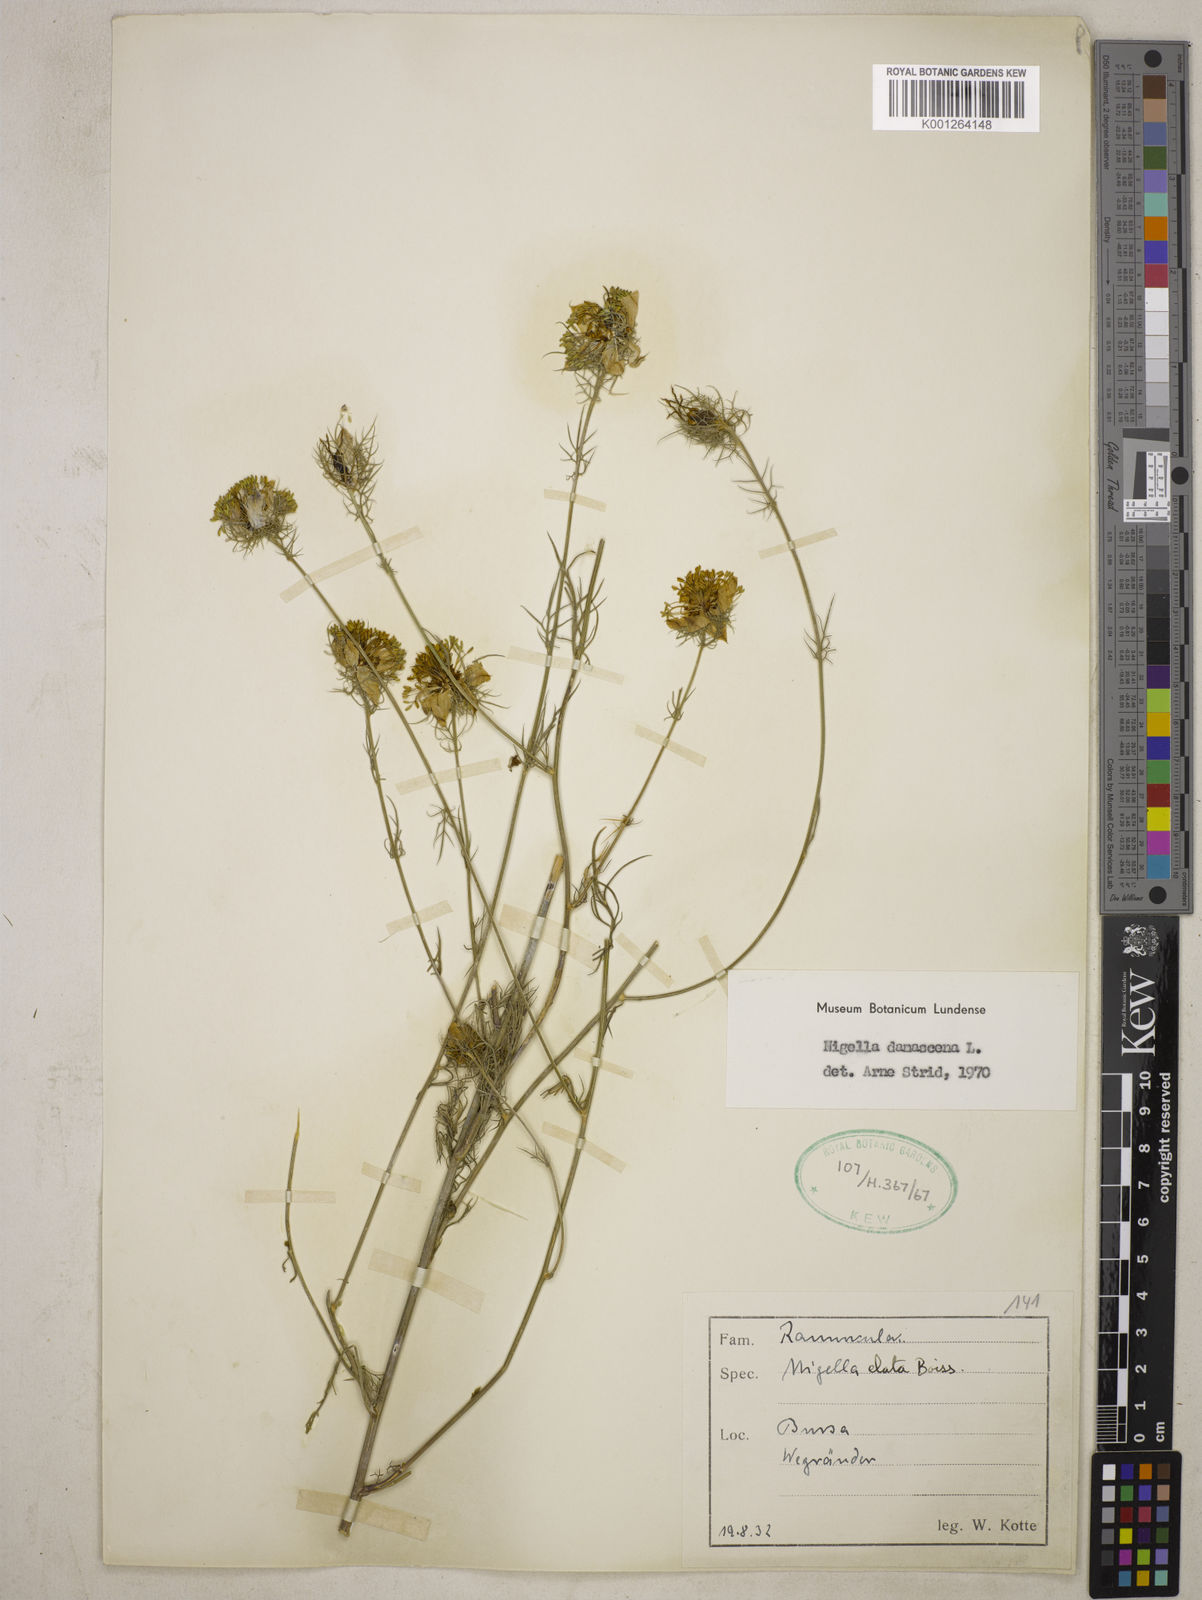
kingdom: Plantae
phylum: Tracheophyta
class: Magnoliopsida
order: Ranunculales
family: Ranunculaceae
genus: Nigella
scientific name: Nigella damascena
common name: Love-in-a-mist
